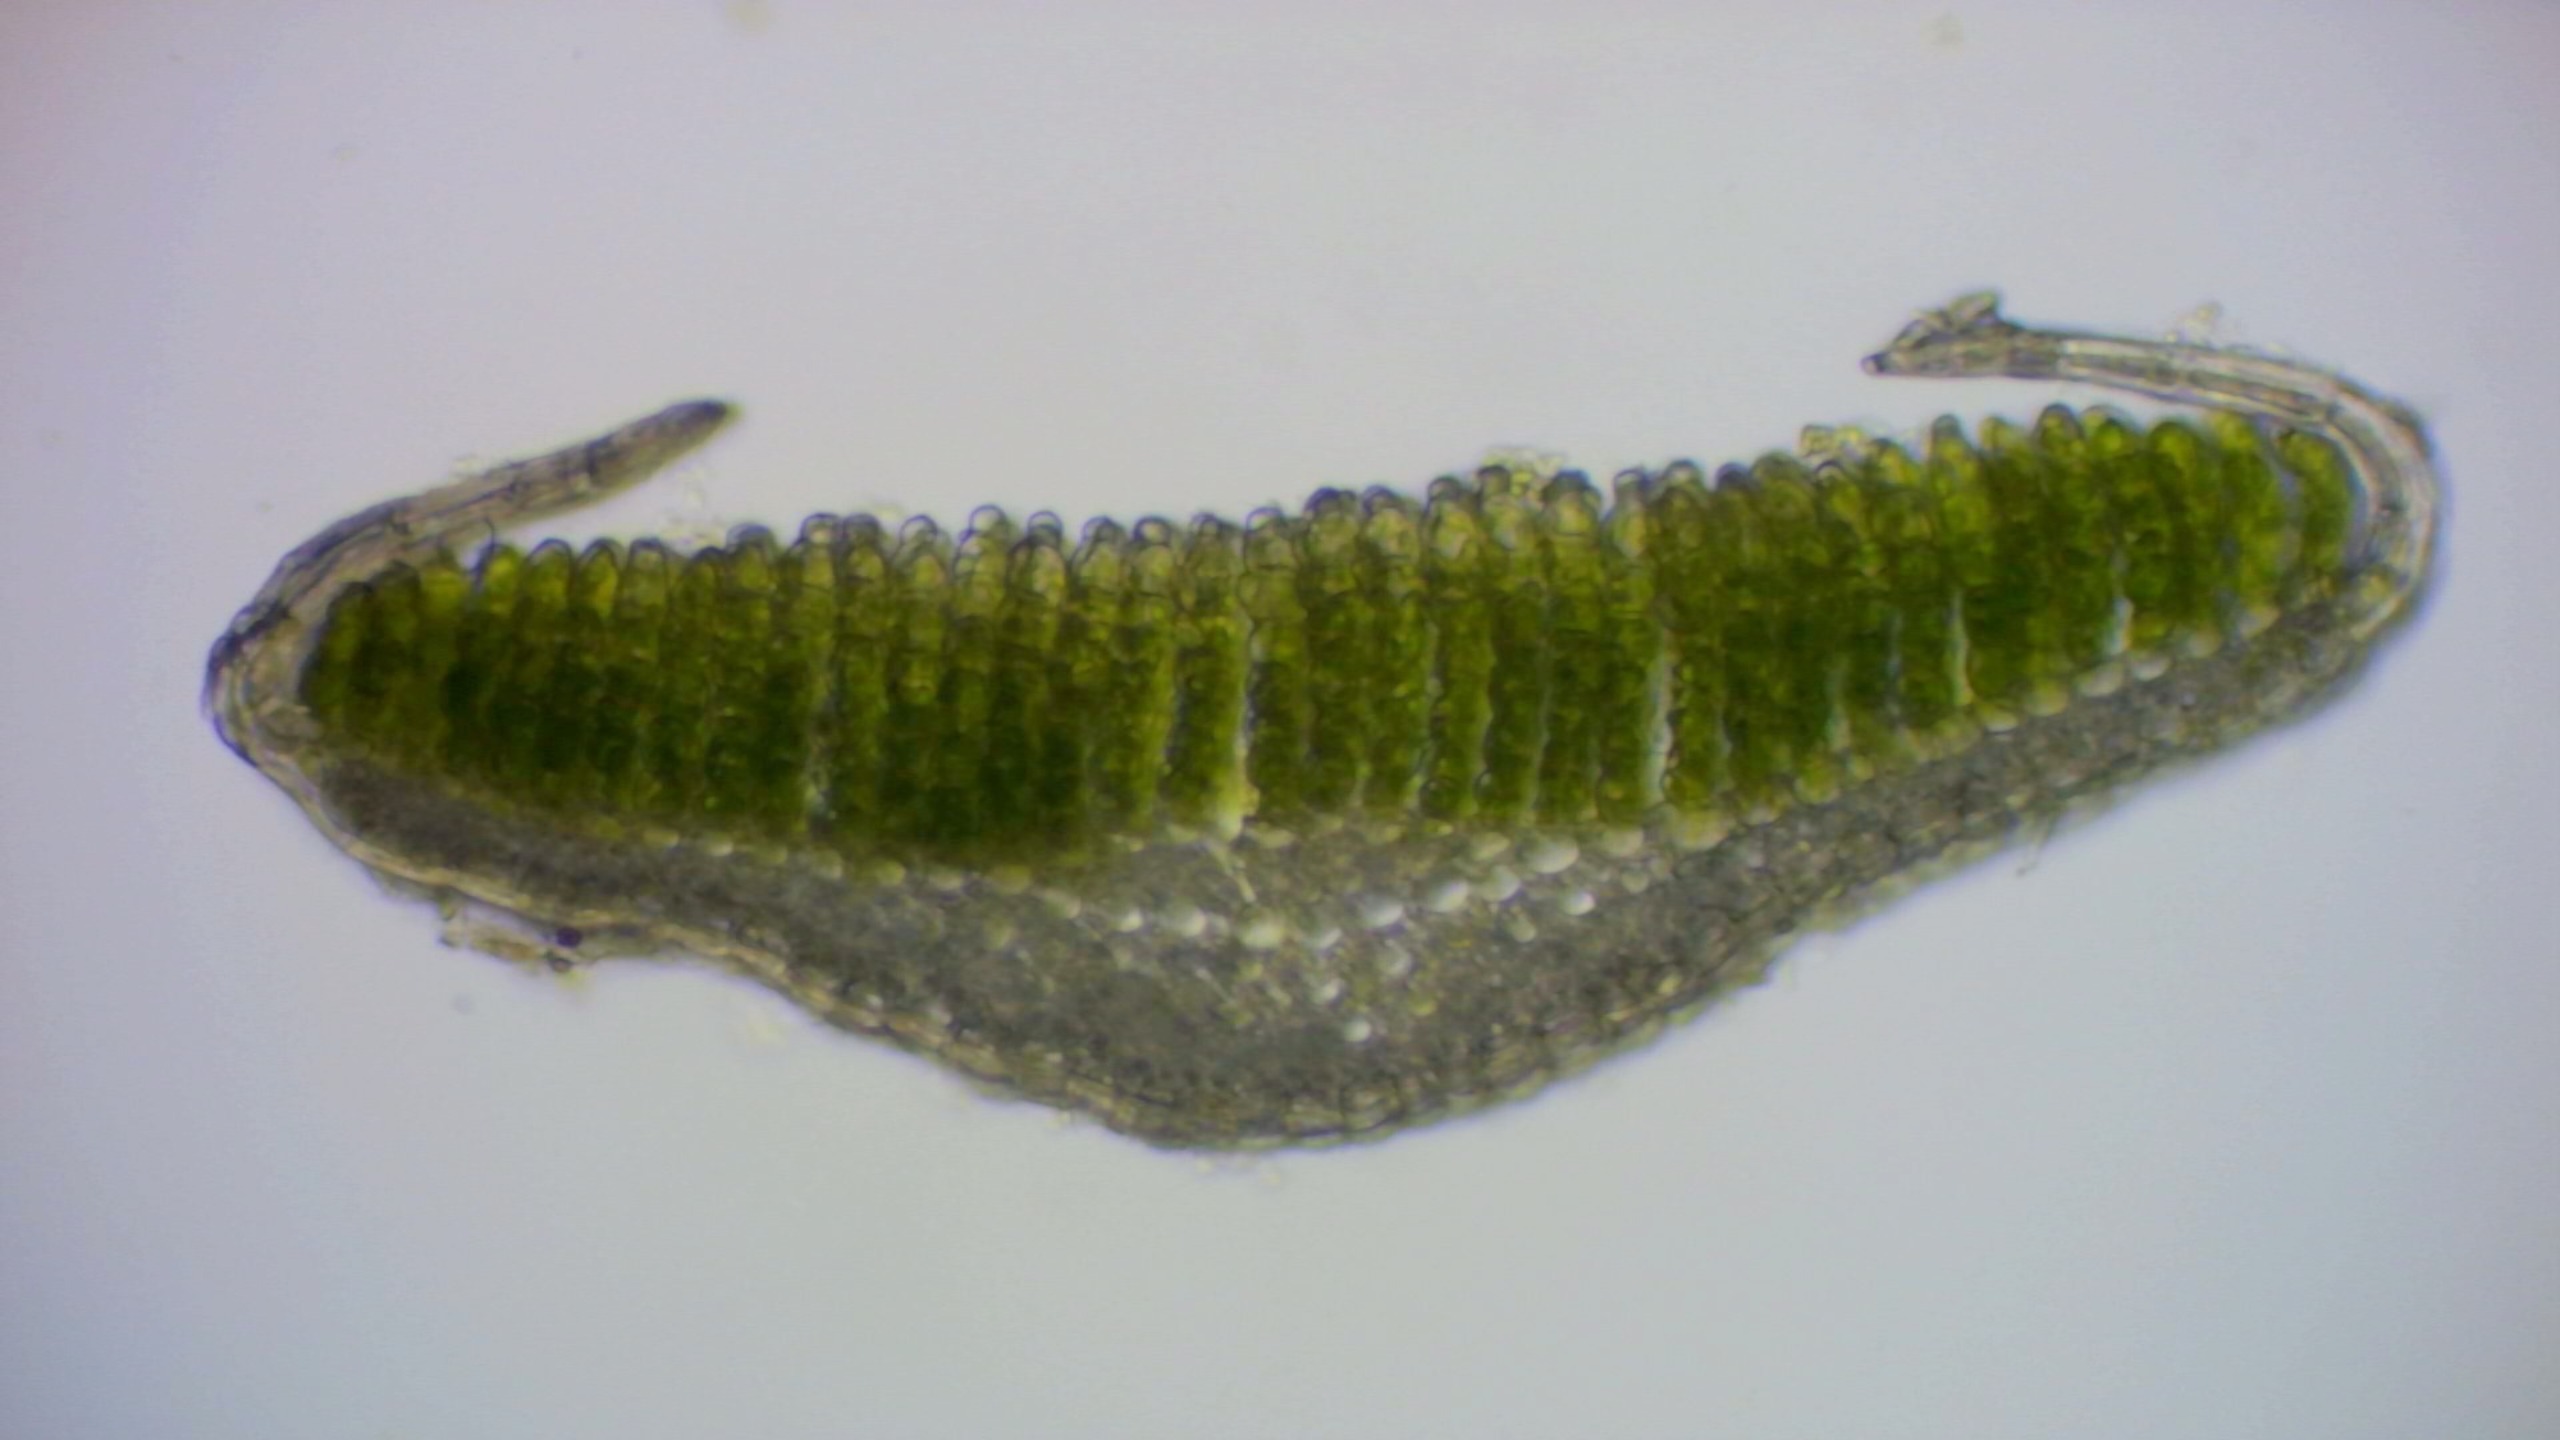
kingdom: Plantae
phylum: Bryophyta
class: Polytrichopsida
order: Polytrichales
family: Polytrichaceae
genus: Polytrichum
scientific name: Polytrichum juniperinum
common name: Ene-jomfruhår
